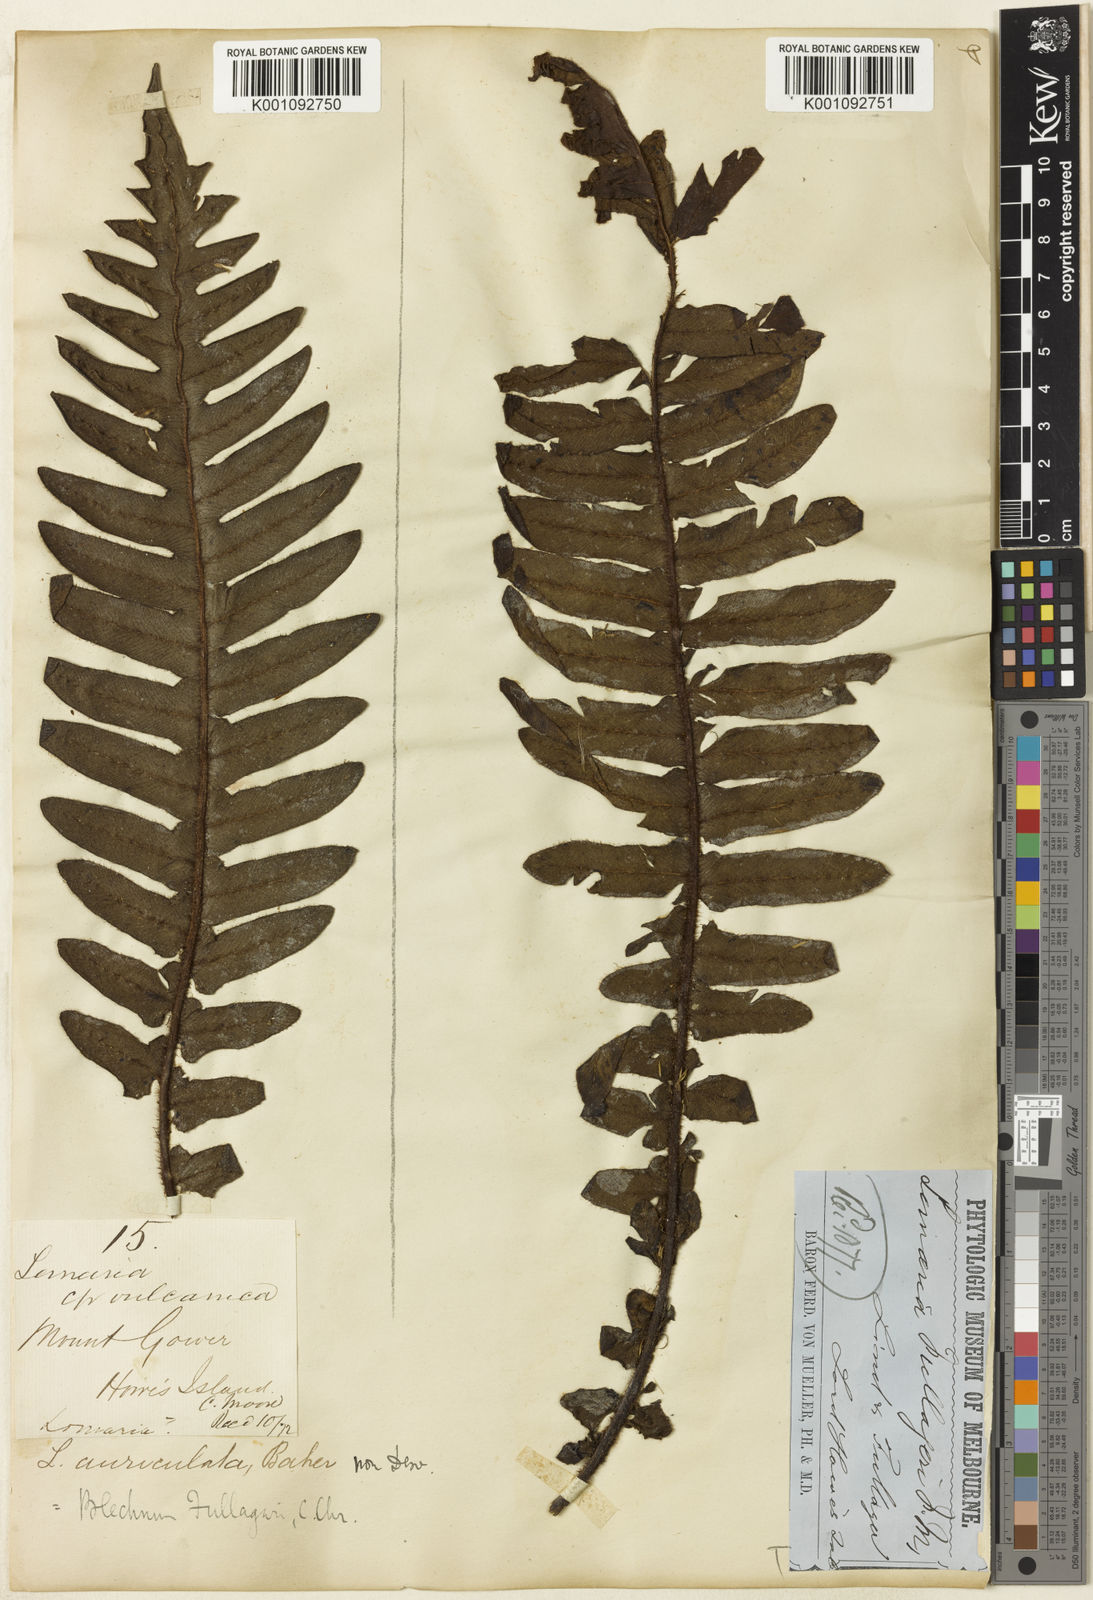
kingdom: Plantae
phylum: Tracheophyta
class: Polypodiopsida
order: Polypodiales
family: Blechnaceae
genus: Cranfillia
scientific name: Cranfillia fullagari
